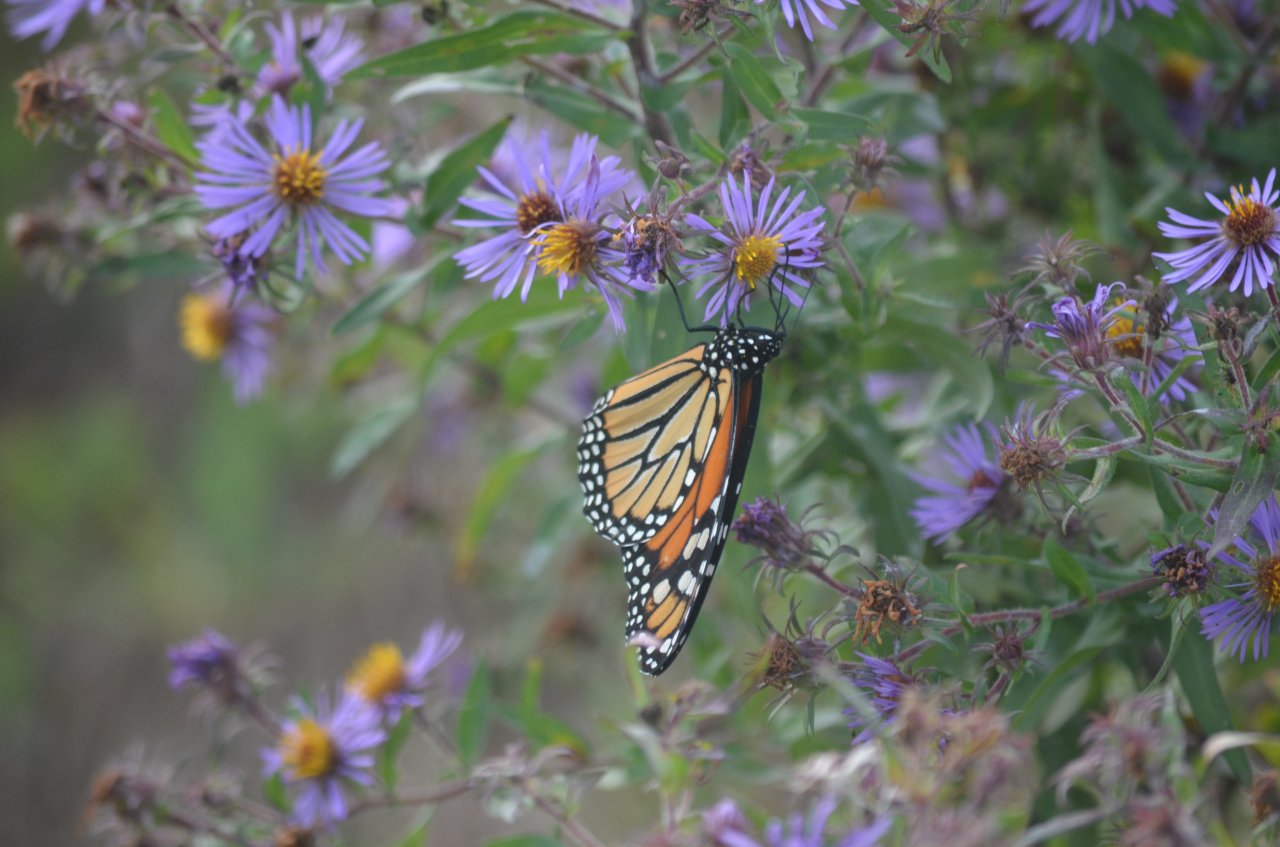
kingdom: Animalia
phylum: Arthropoda
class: Insecta
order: Lepidoptera
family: Nymphalidae
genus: Danaus
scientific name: Danaus plexippus
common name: Monarch
